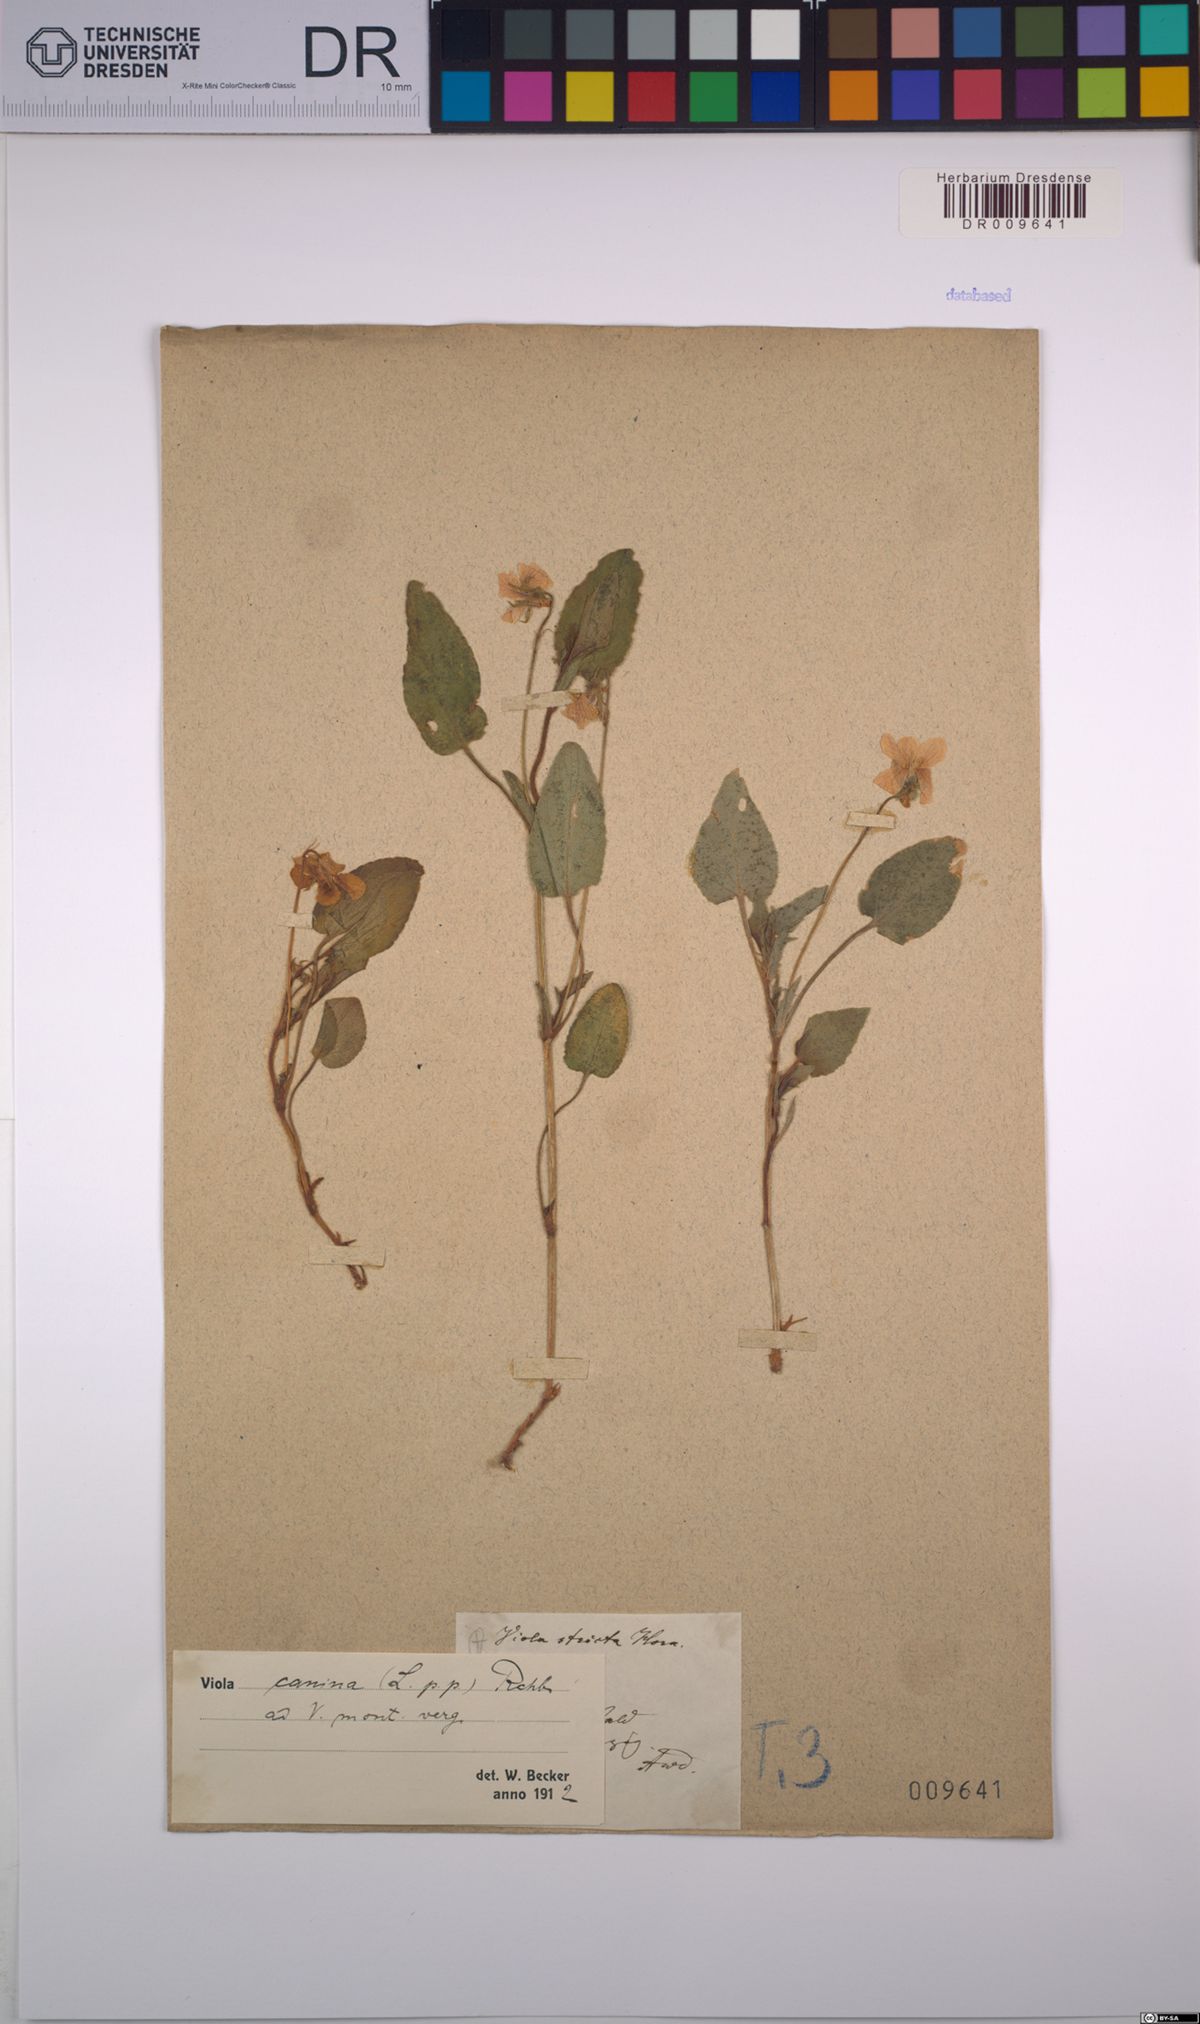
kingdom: Plantae
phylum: Tracheophyta
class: Magnoliopsida
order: Malpighiales
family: Violaceae
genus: Viola
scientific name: Viola canina
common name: Heath dog-violet
